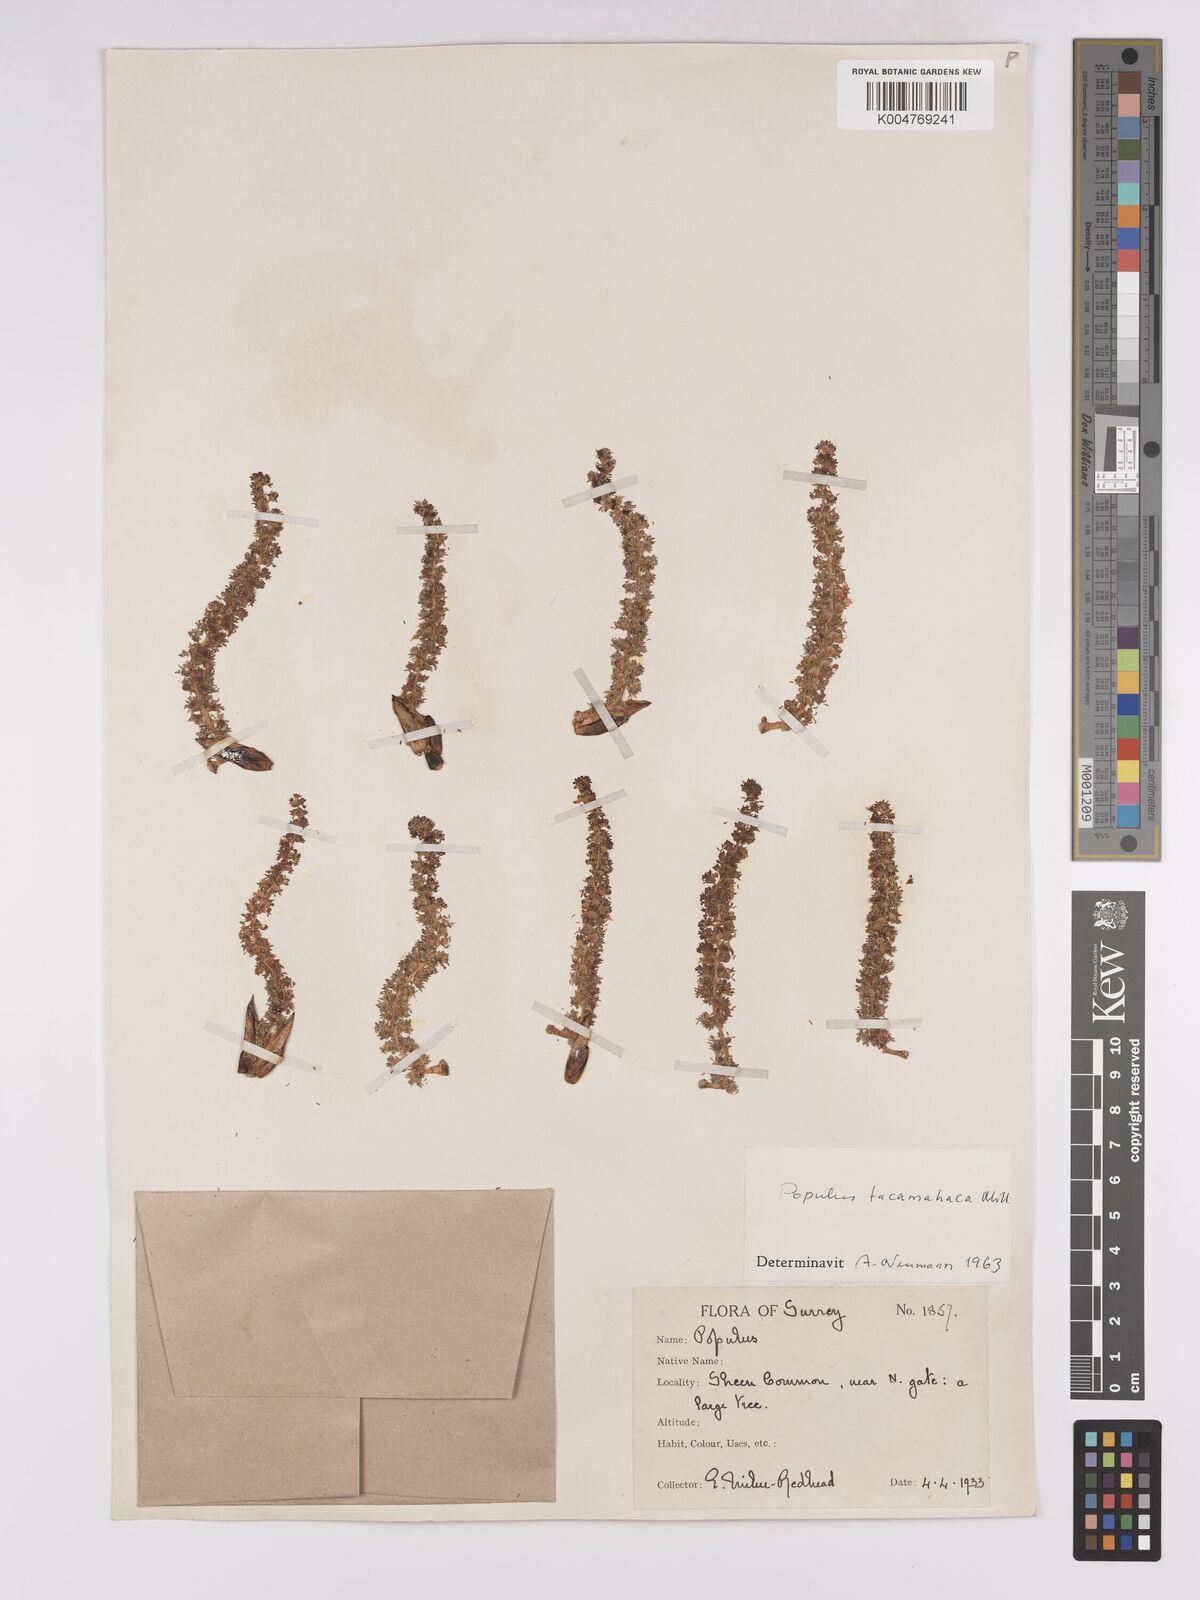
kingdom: Plantae
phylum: Tracheophyta
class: Magnoliopsida
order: Malpighiales
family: Salicaceae
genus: Populus
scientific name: Populus balsamifera
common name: Balsam poplar
